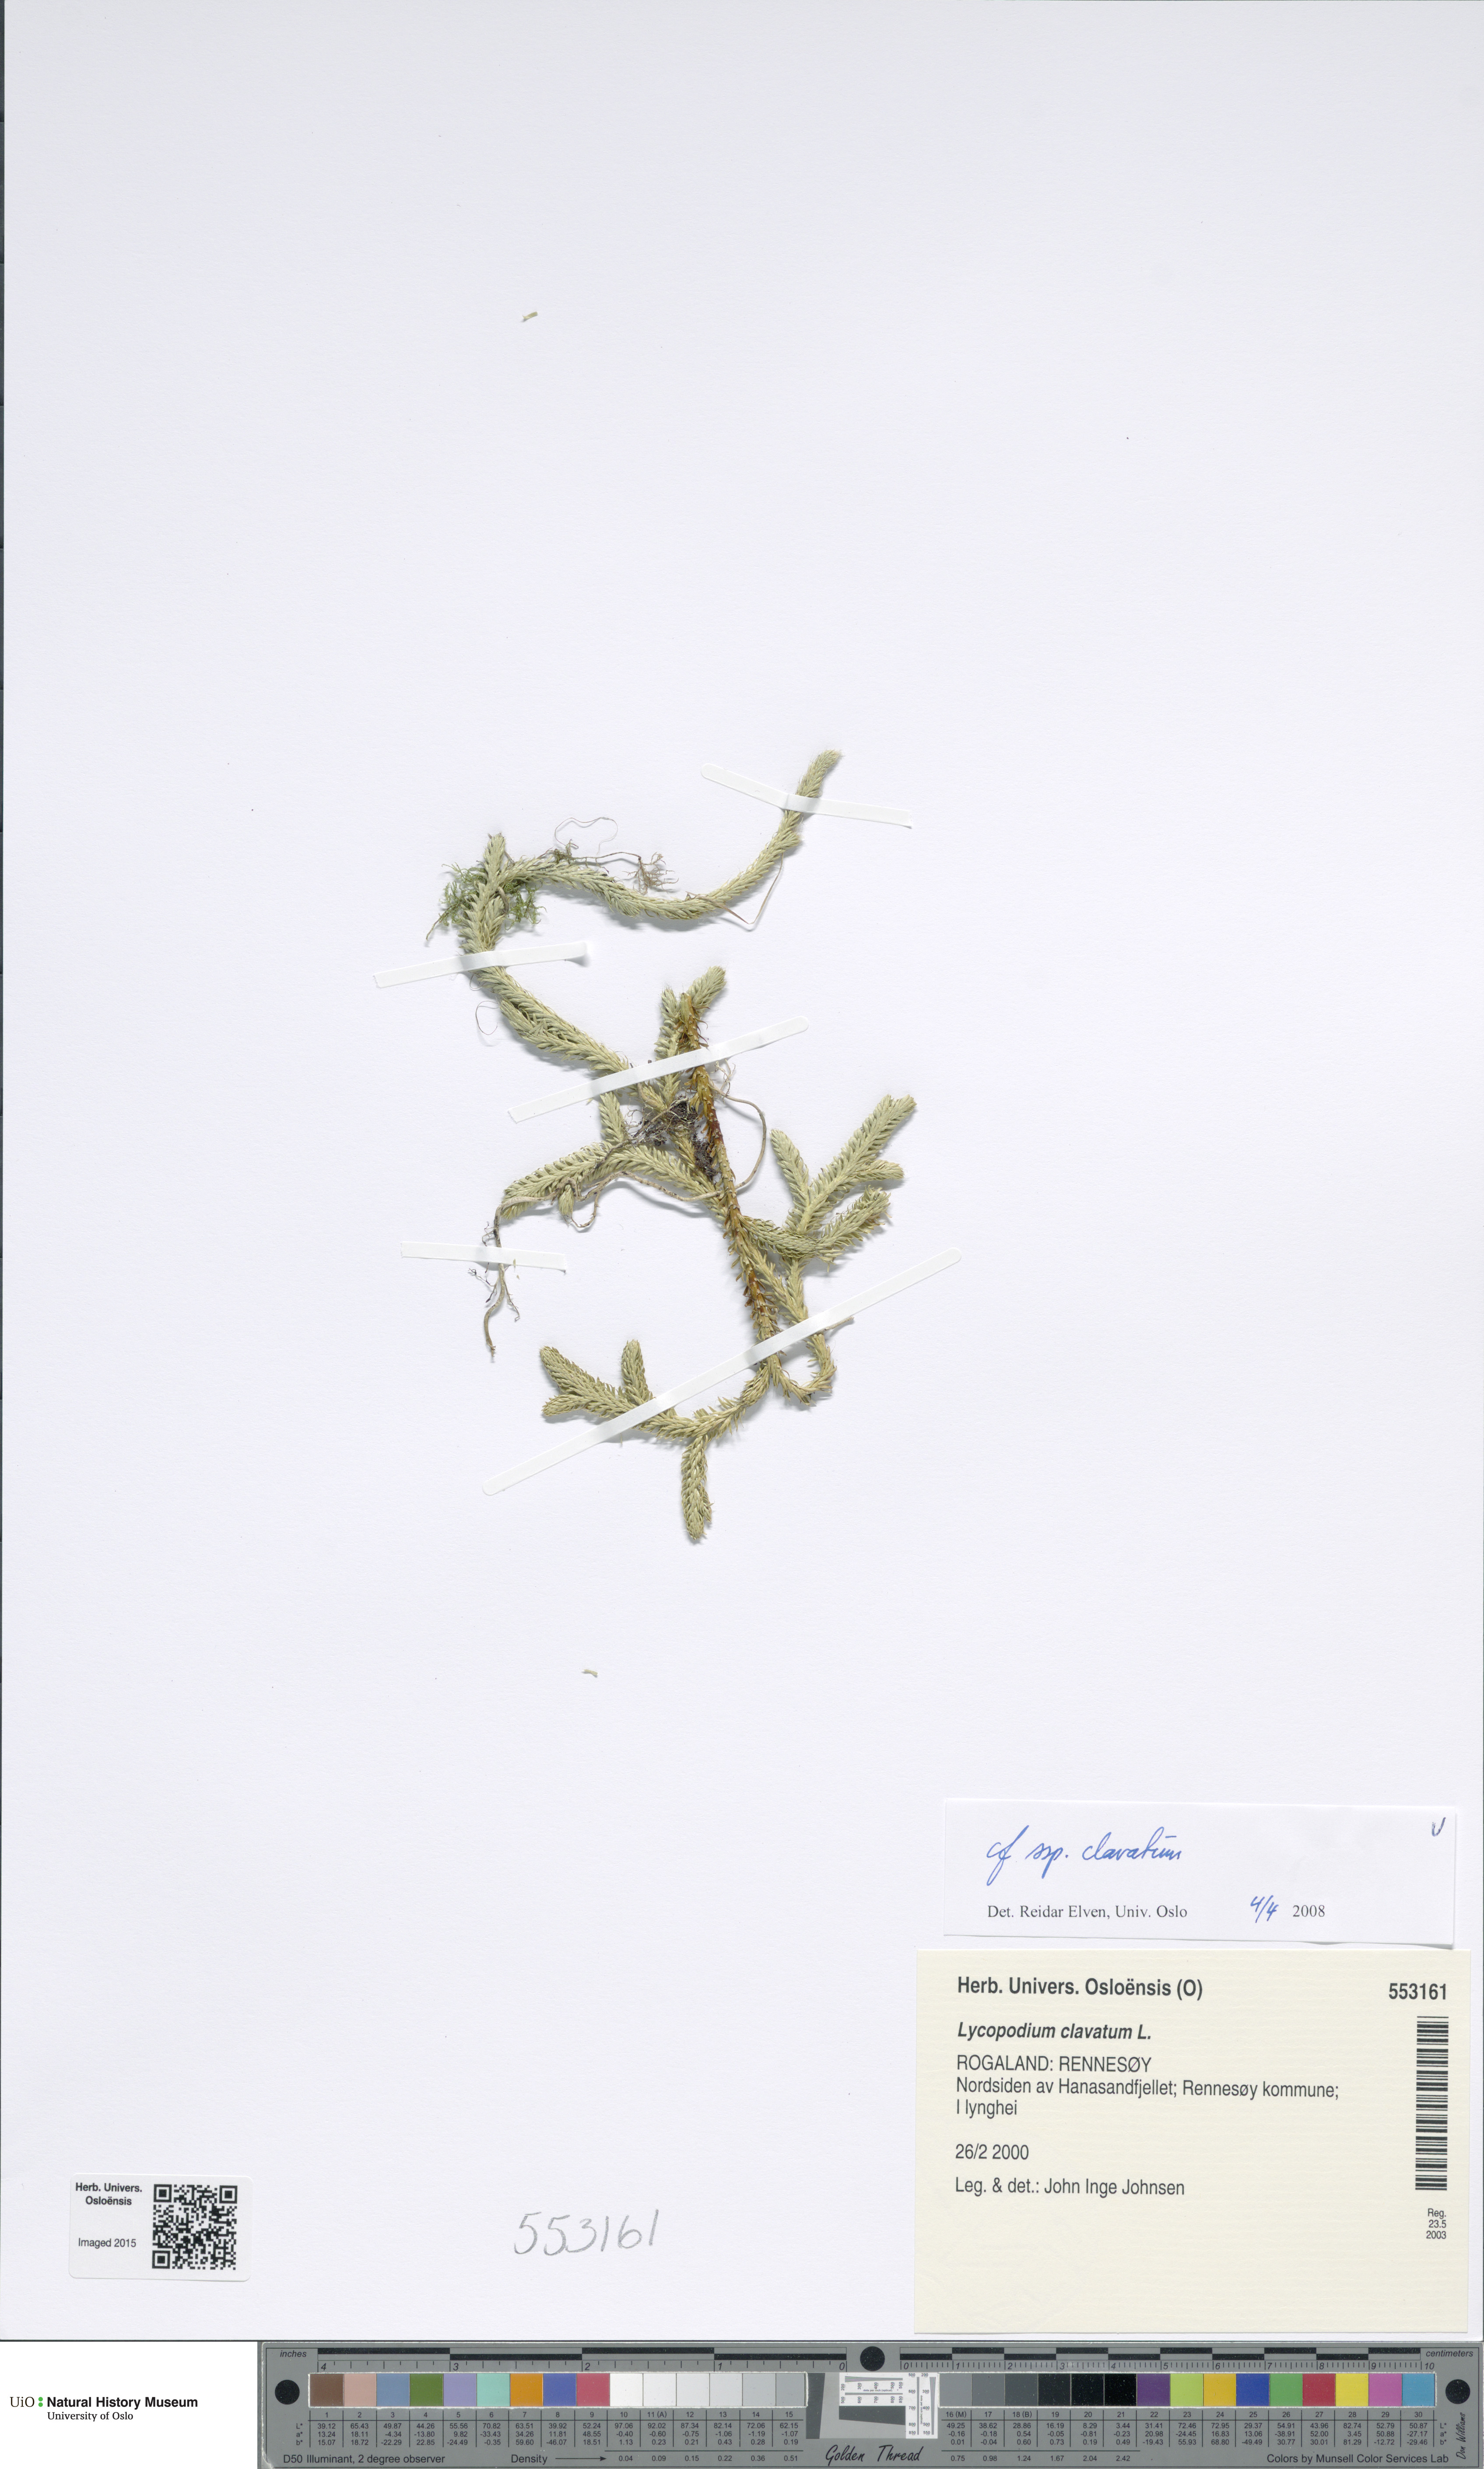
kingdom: Plantae
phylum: Tracheophyta
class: Lycopodiopsida
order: Lycopodiales
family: Lycopodiaceae
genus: Lycopodium
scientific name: Lycopodium clavatum
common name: Stag's-horn clubmoss
